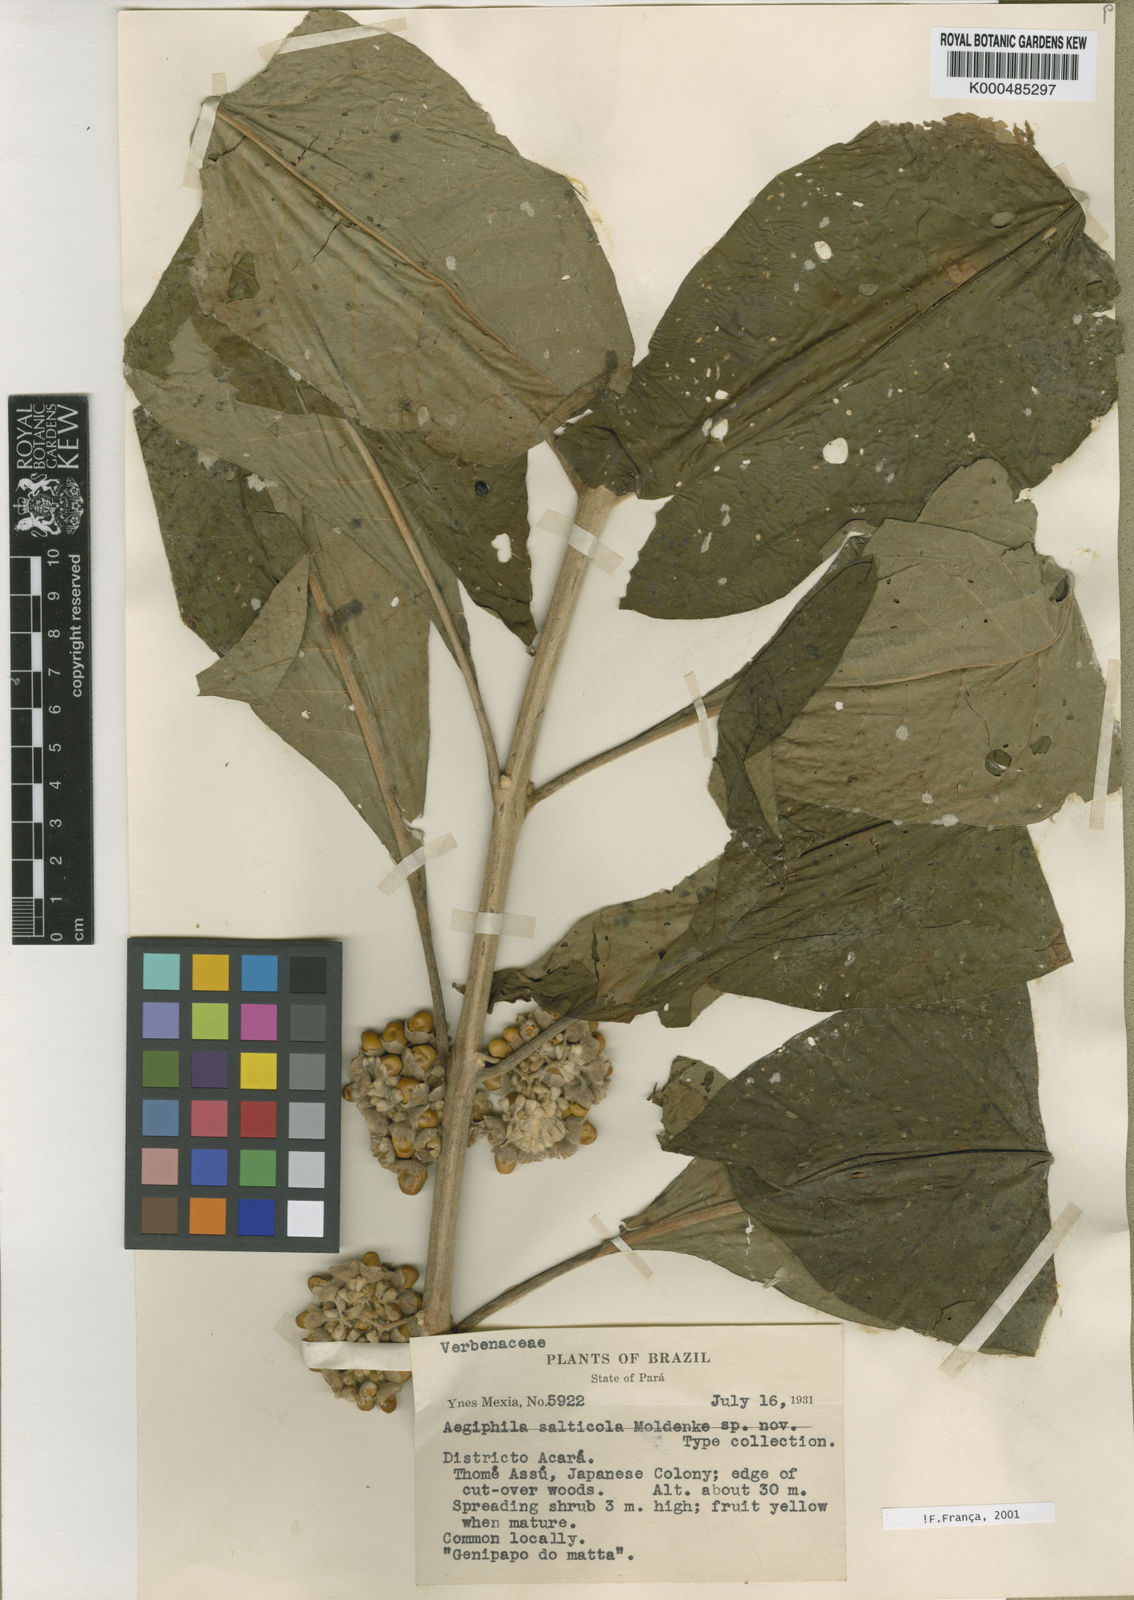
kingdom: Plantae
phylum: Tracheophyta
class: Magnoliopsida
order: Lamiales
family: Lamiaceae
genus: Aegiphila
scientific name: Aegiphila salticola
